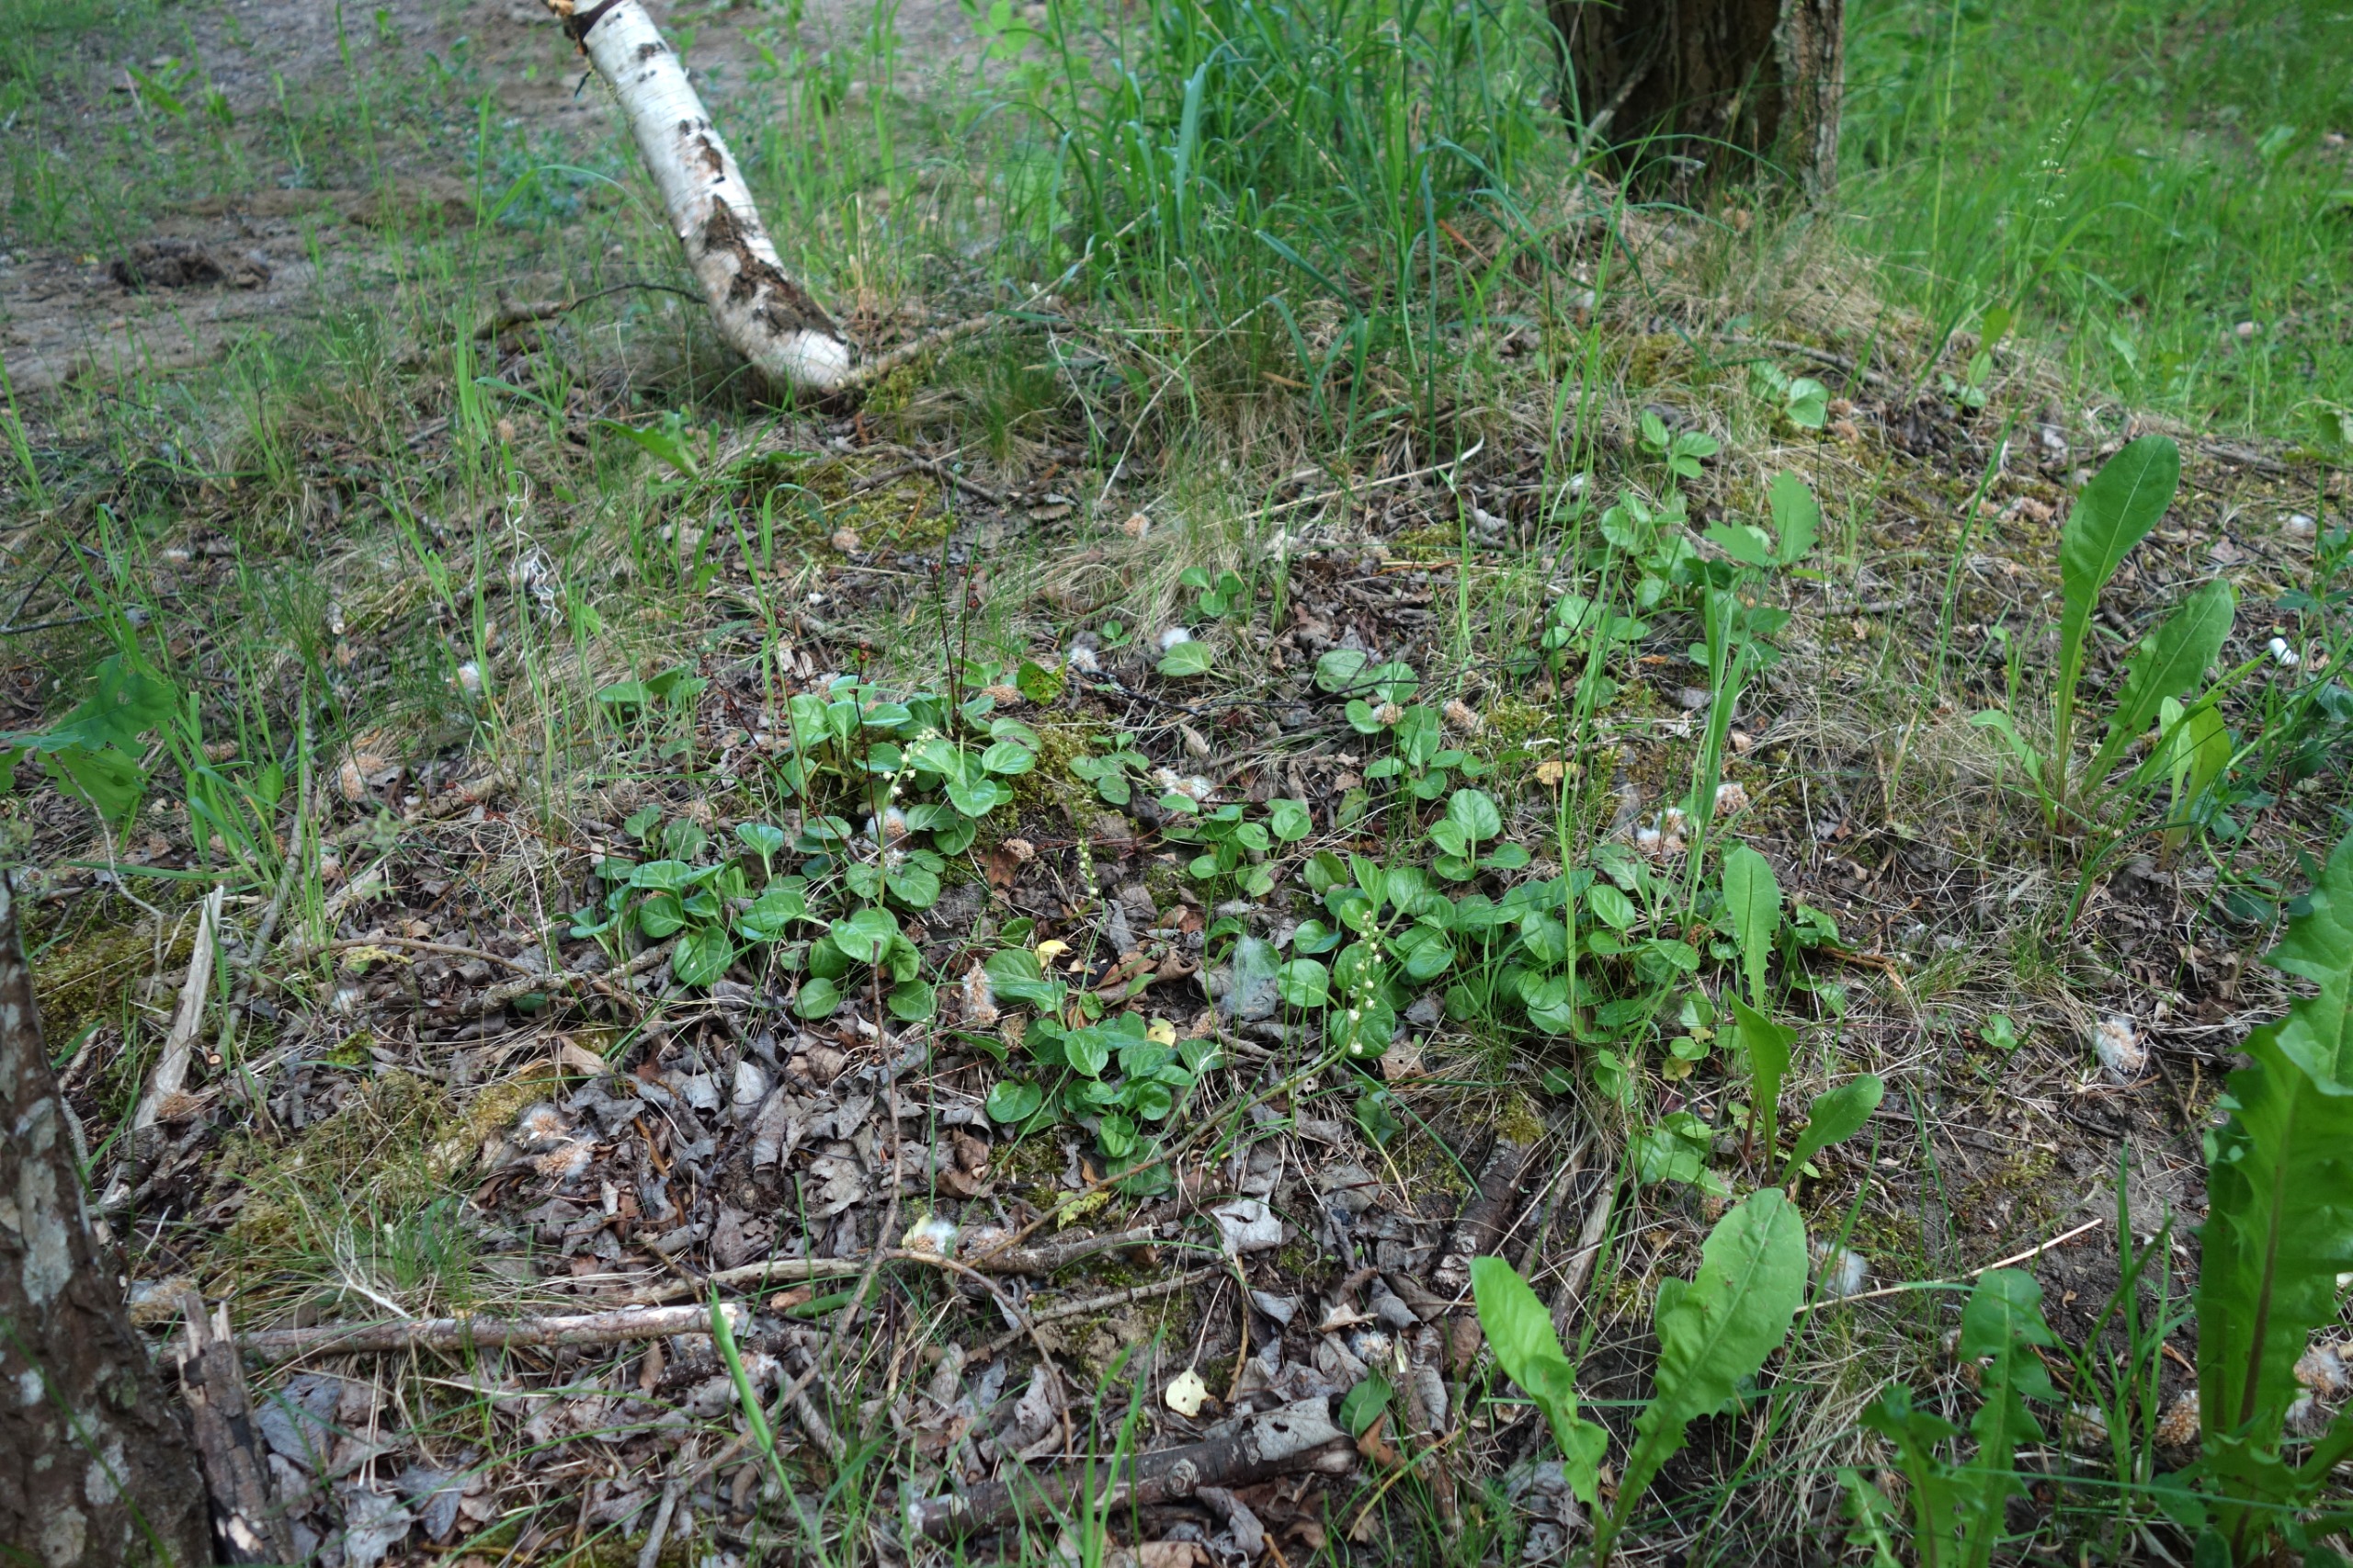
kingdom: Plantae
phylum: Tracheophyta
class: Magnoliopsida
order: Ericales
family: Ericaceae
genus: Pyrola
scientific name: Pyrola rotundifolia
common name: Mose-vintergrøn (underart)
